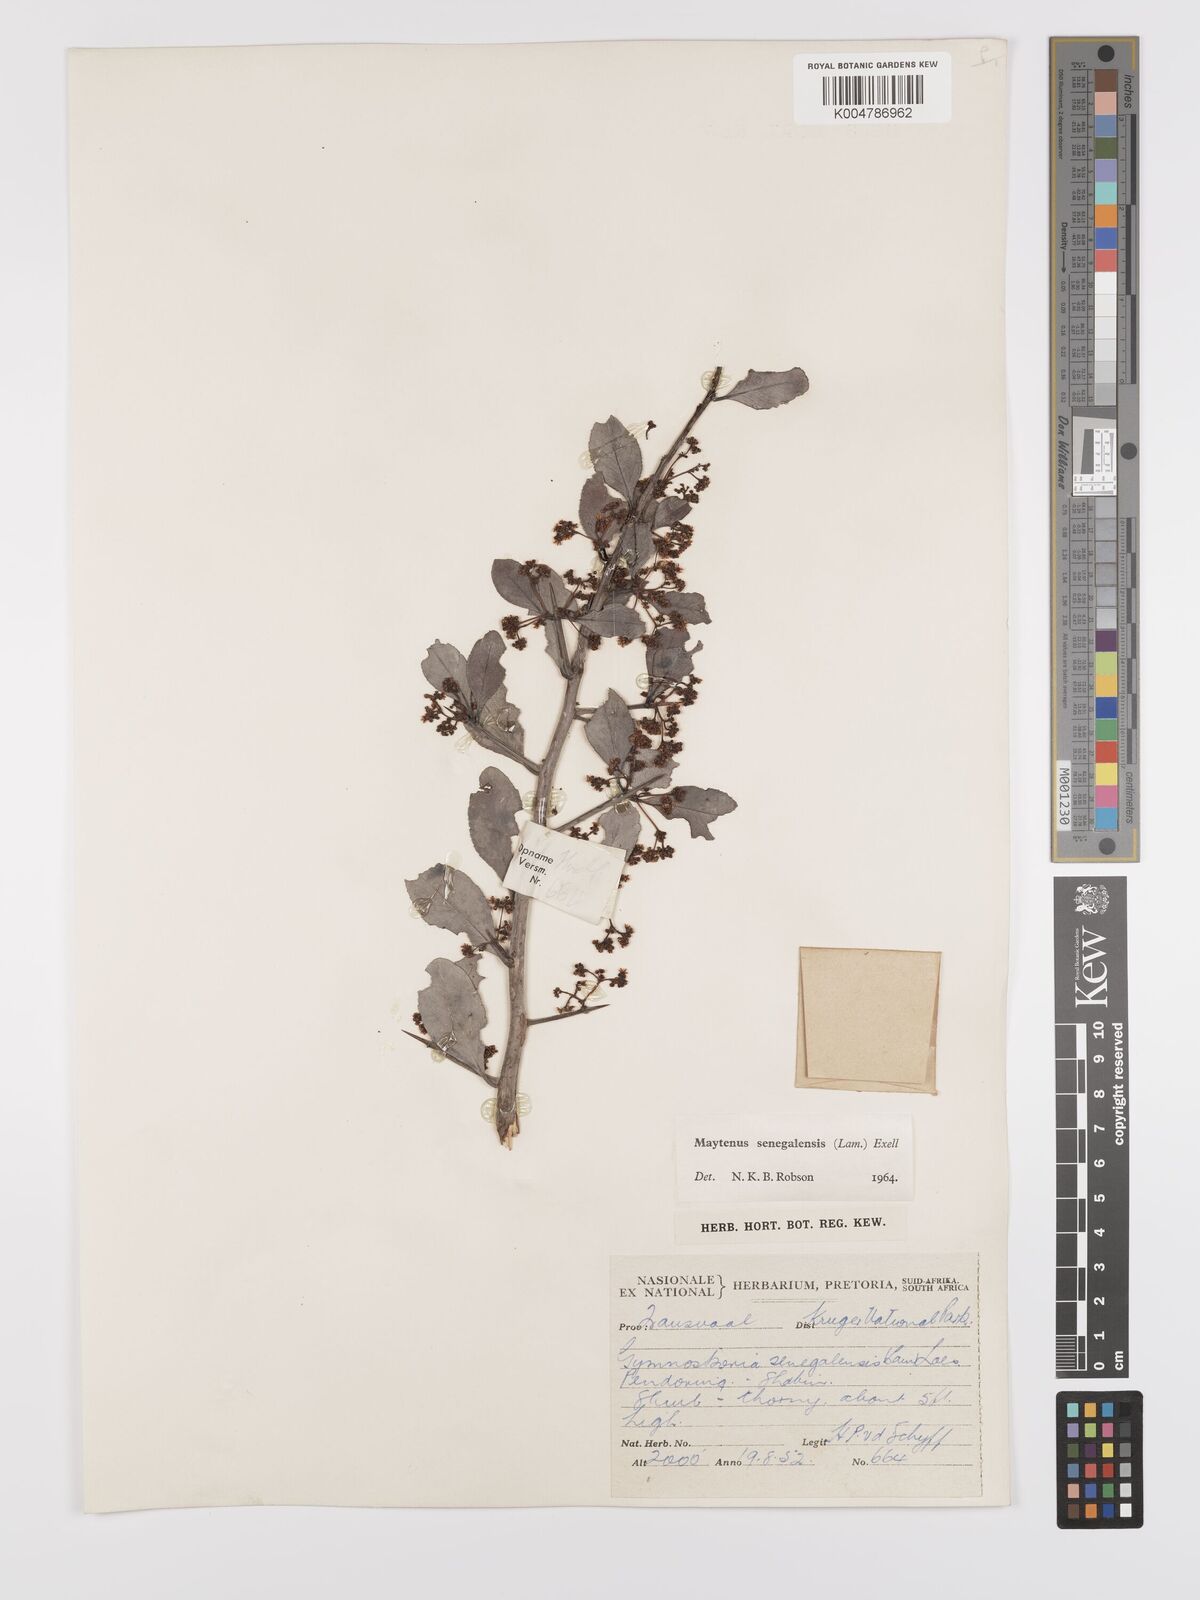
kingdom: Plantae
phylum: Tracheophyta
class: Magnoliopsida
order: Celastrales
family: Celastraceae
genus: Gymnosporia
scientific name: Gymnosporia senegalensis
